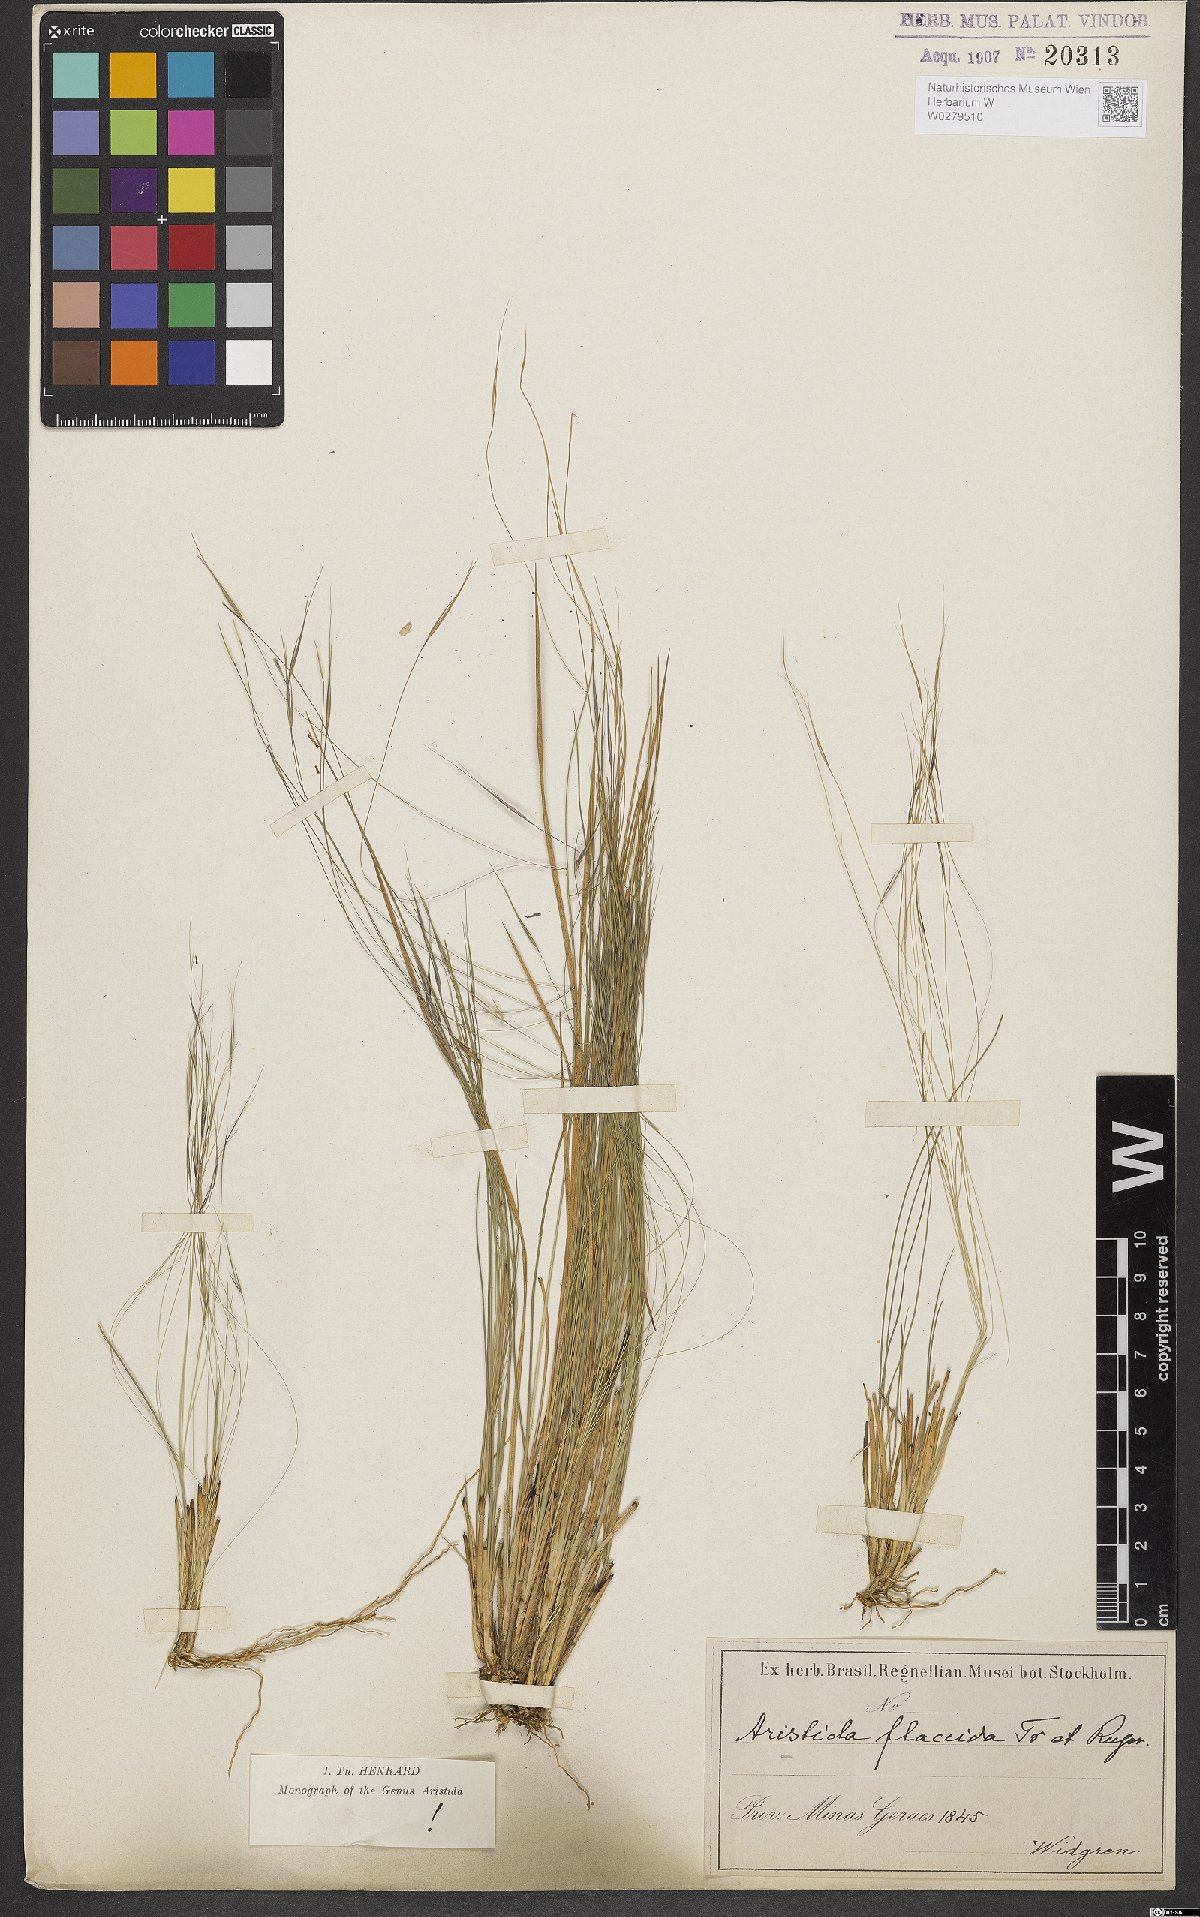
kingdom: Plantae
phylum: Tracheophyta
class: Liliopsida
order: Poales
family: Poaceae
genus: Aristida
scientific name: Aristida flaccida
